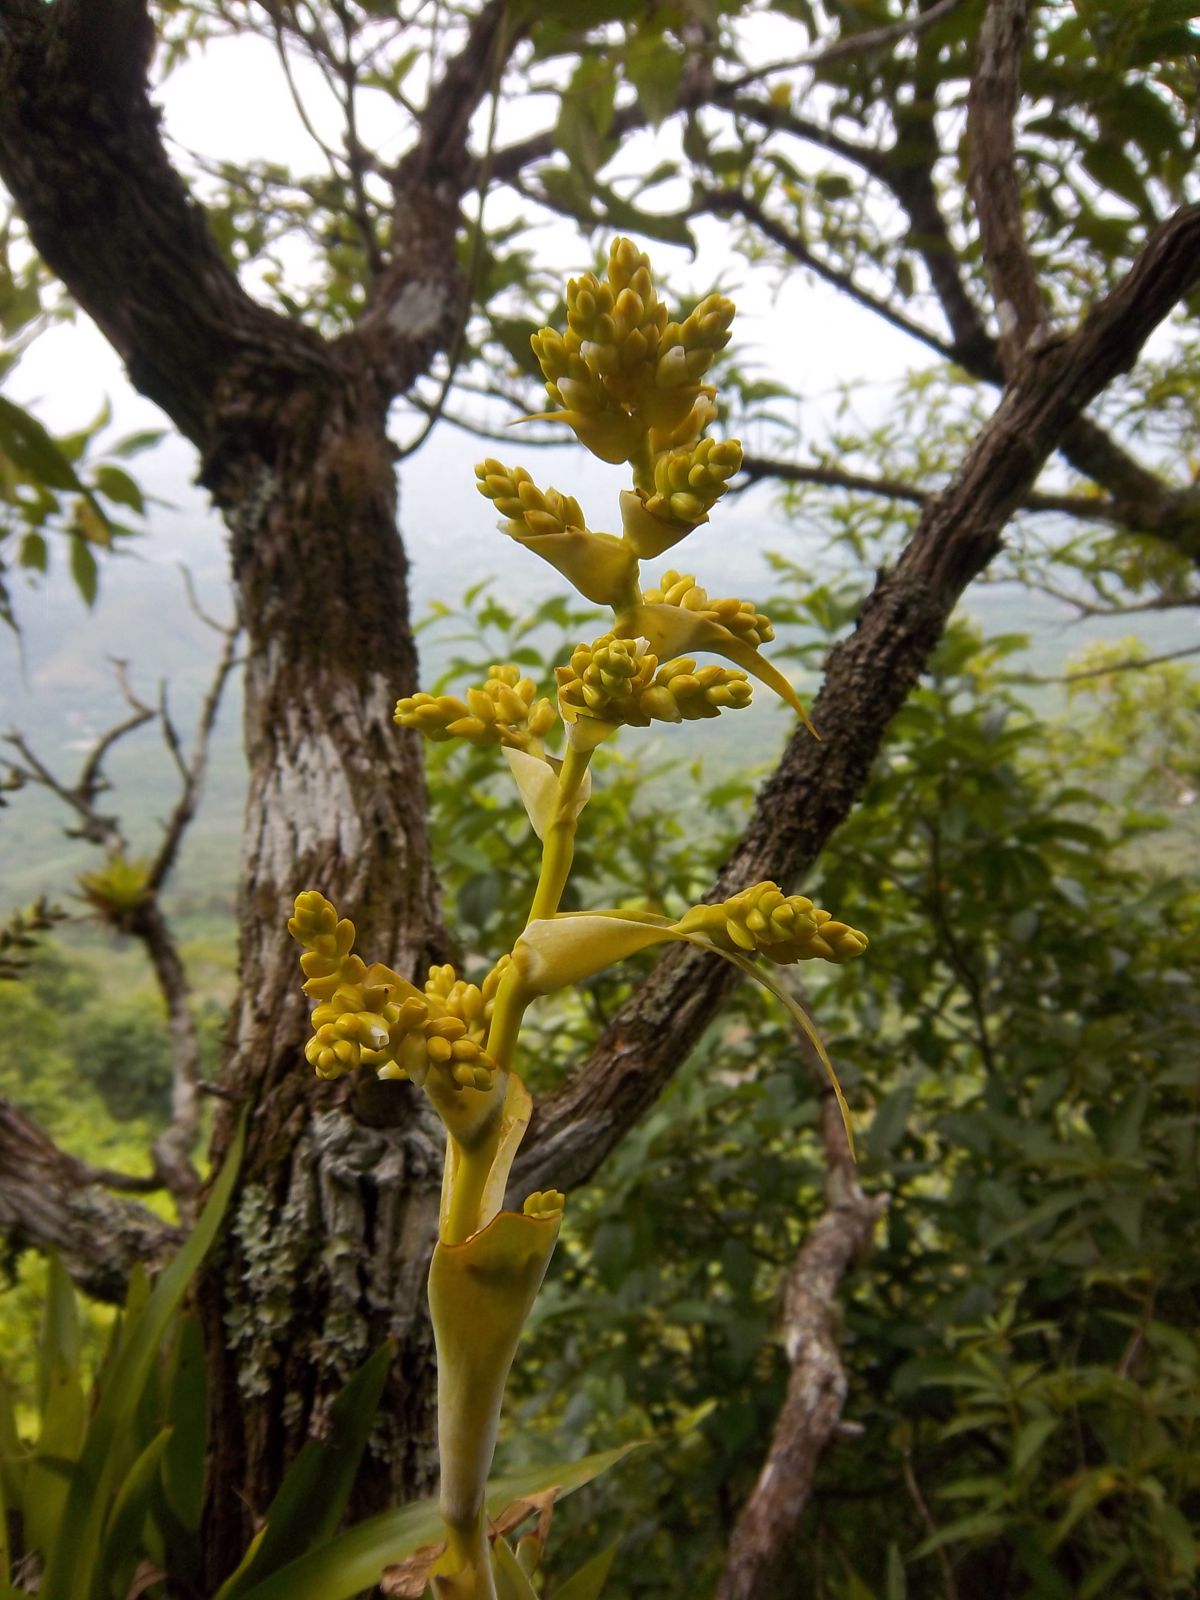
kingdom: Plantae
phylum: Tracheophyta
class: Liliopsida
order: Poales
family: Bromeliaceae
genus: Catopsis
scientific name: Catopsis paniculata
